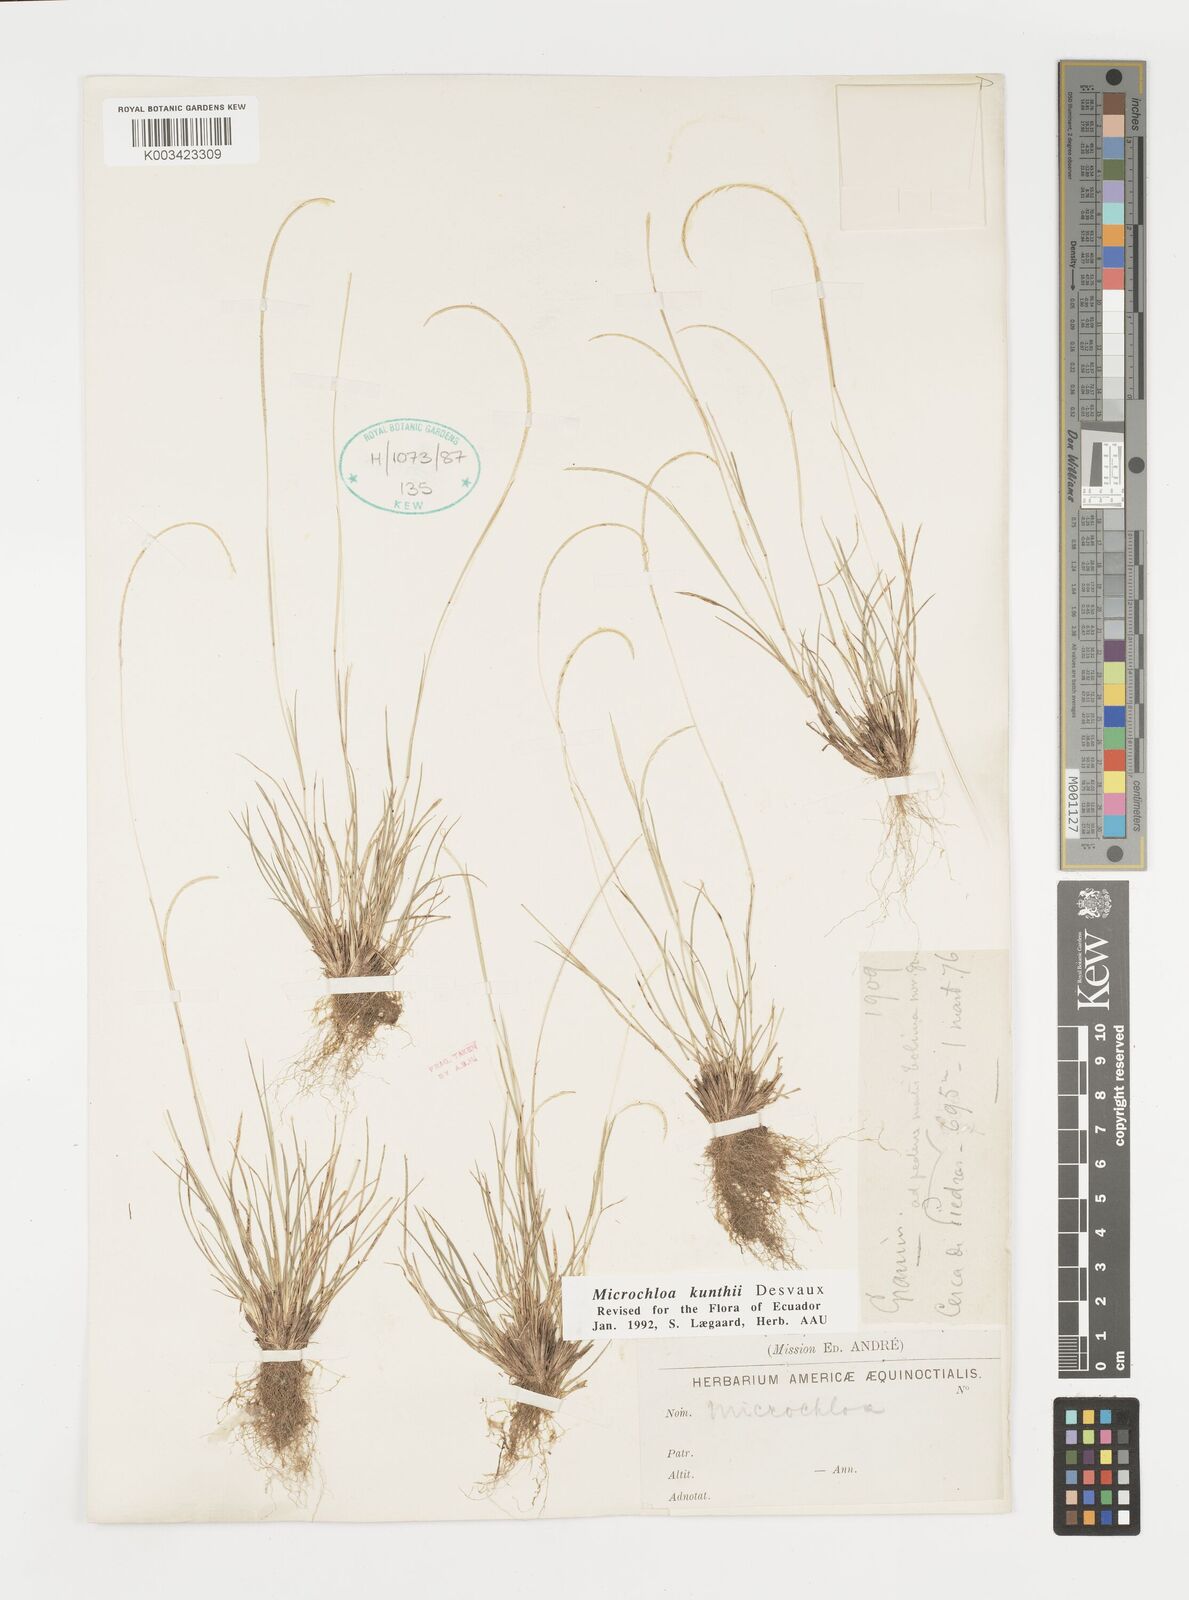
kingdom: Plantae
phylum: Tracheophyta
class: Liliopsida
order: Poales
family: Poaceae
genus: Microchloa
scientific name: Microchloa indica
